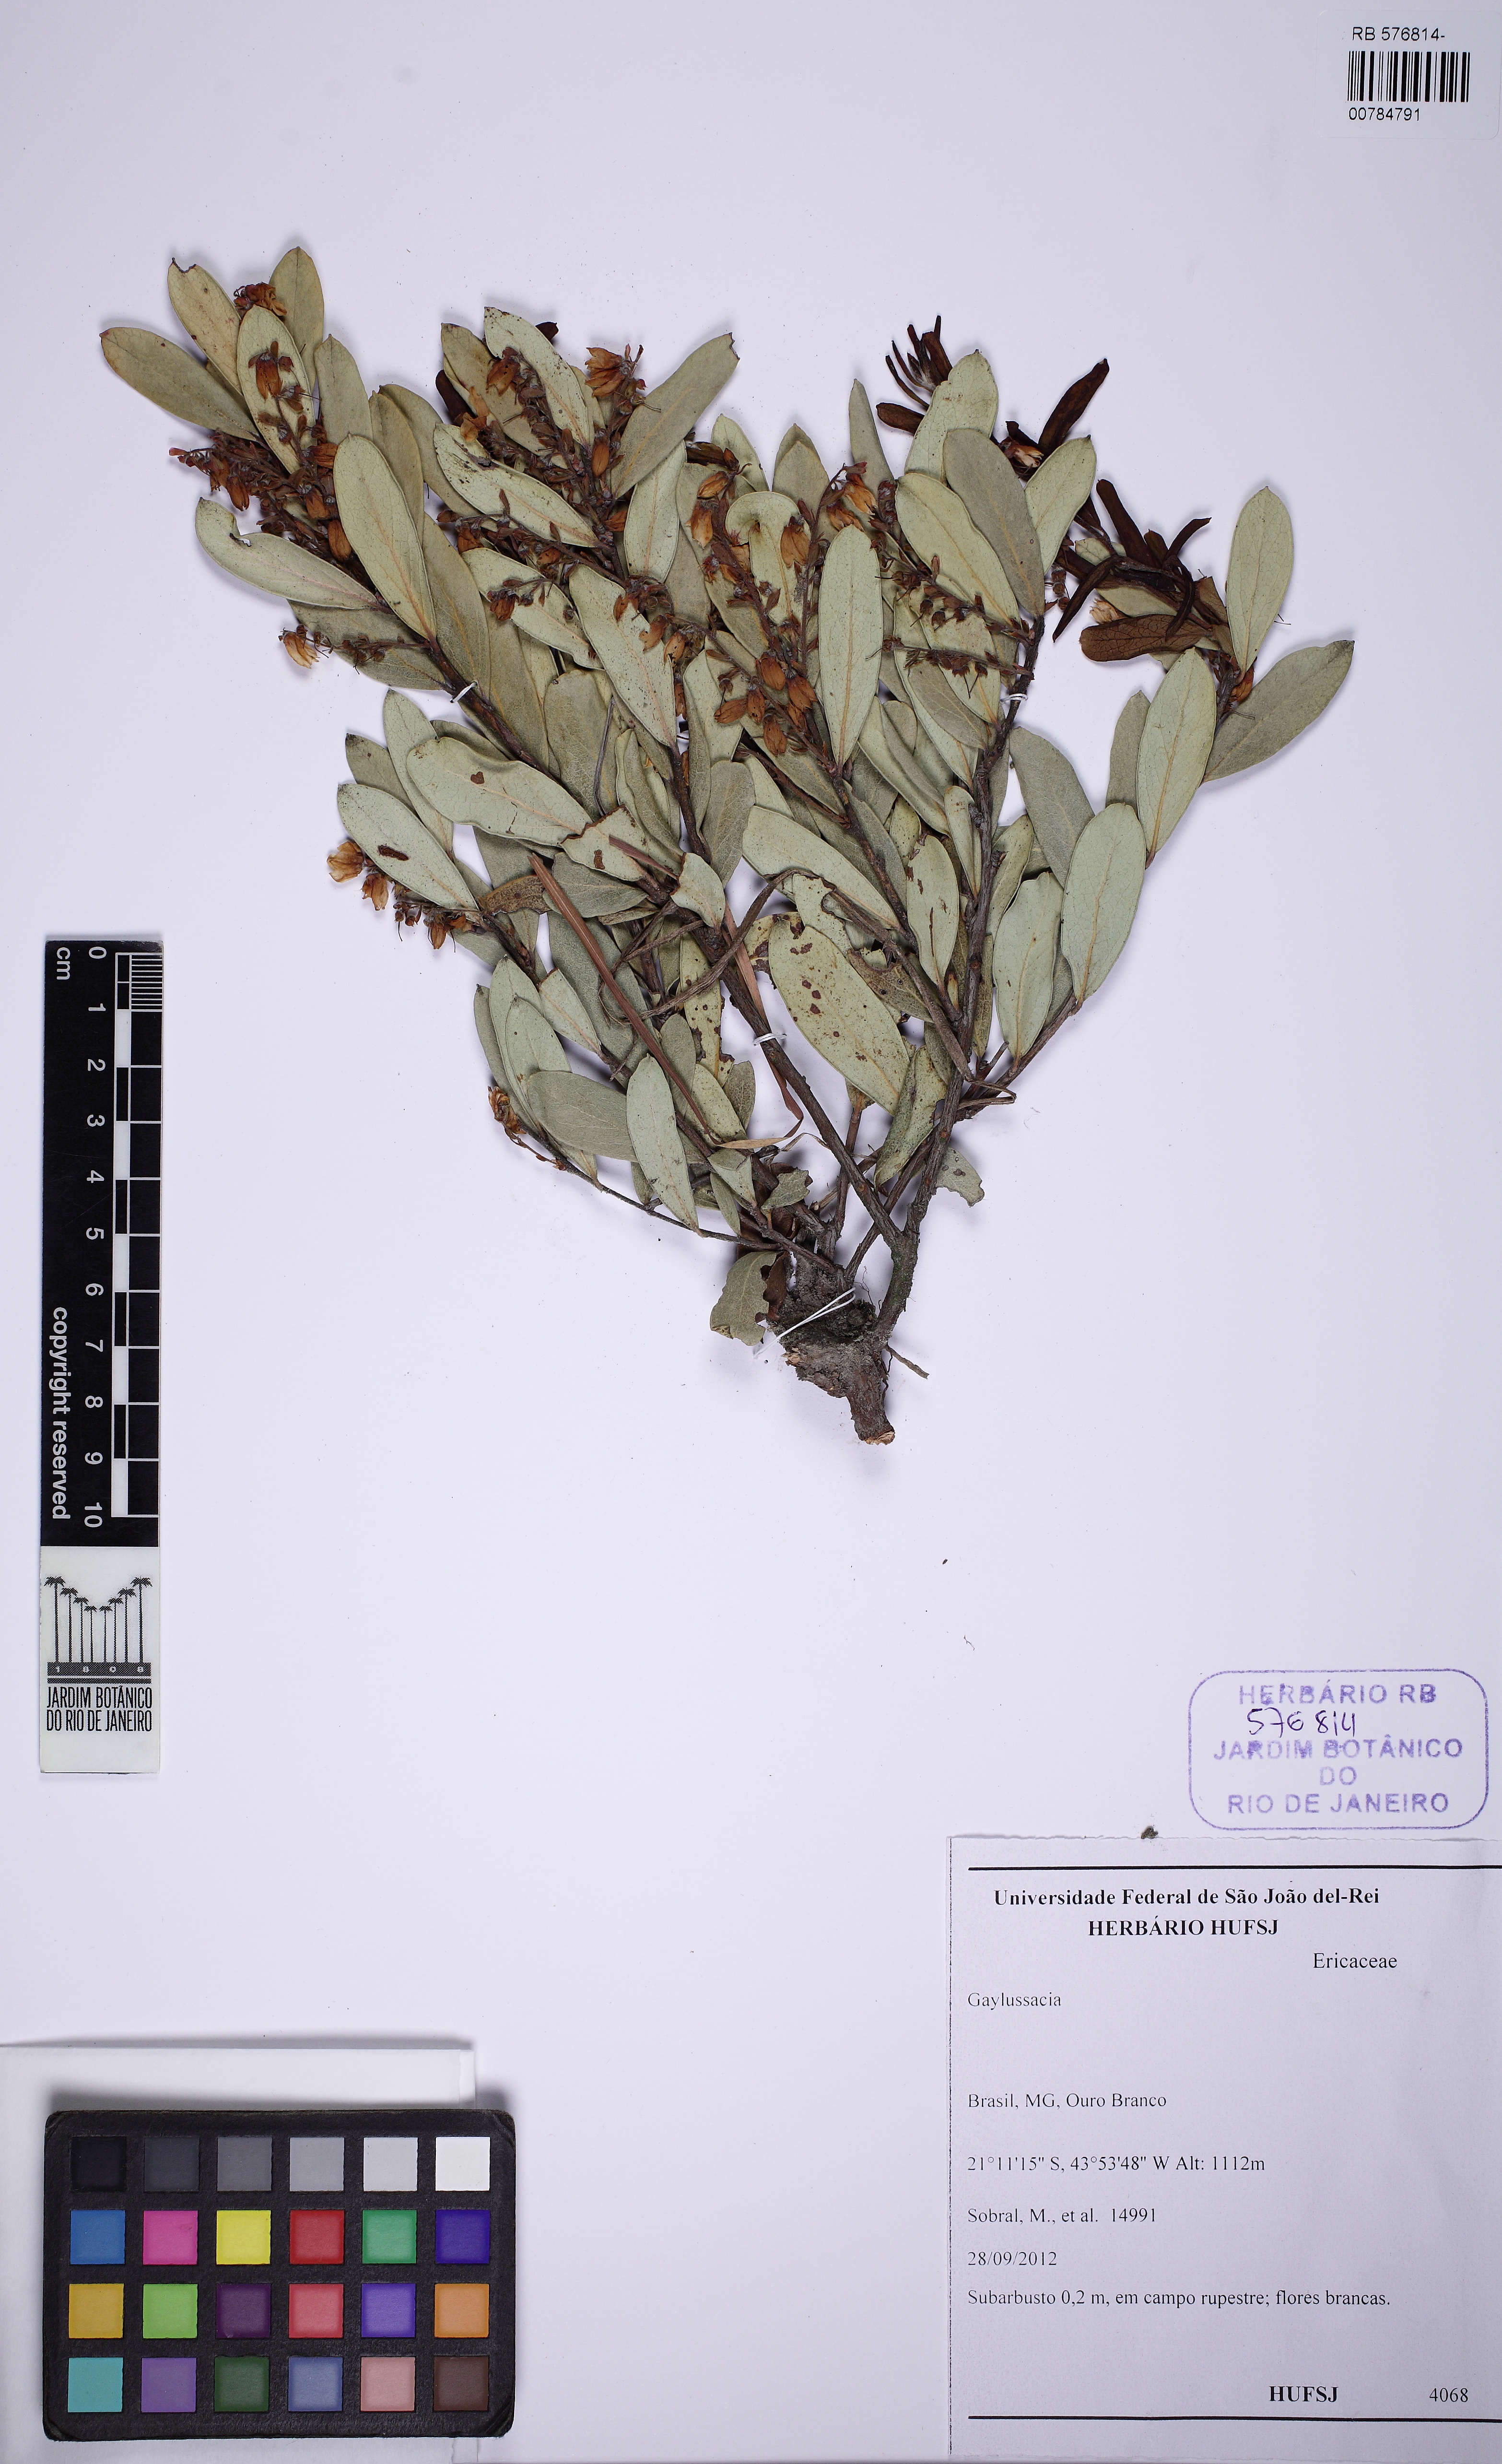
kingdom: Plantae
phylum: Tracheophyta
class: Magnoliopsida
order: Ericales
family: Ericaceae
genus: Gaylussacia
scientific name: Gaylussacia
